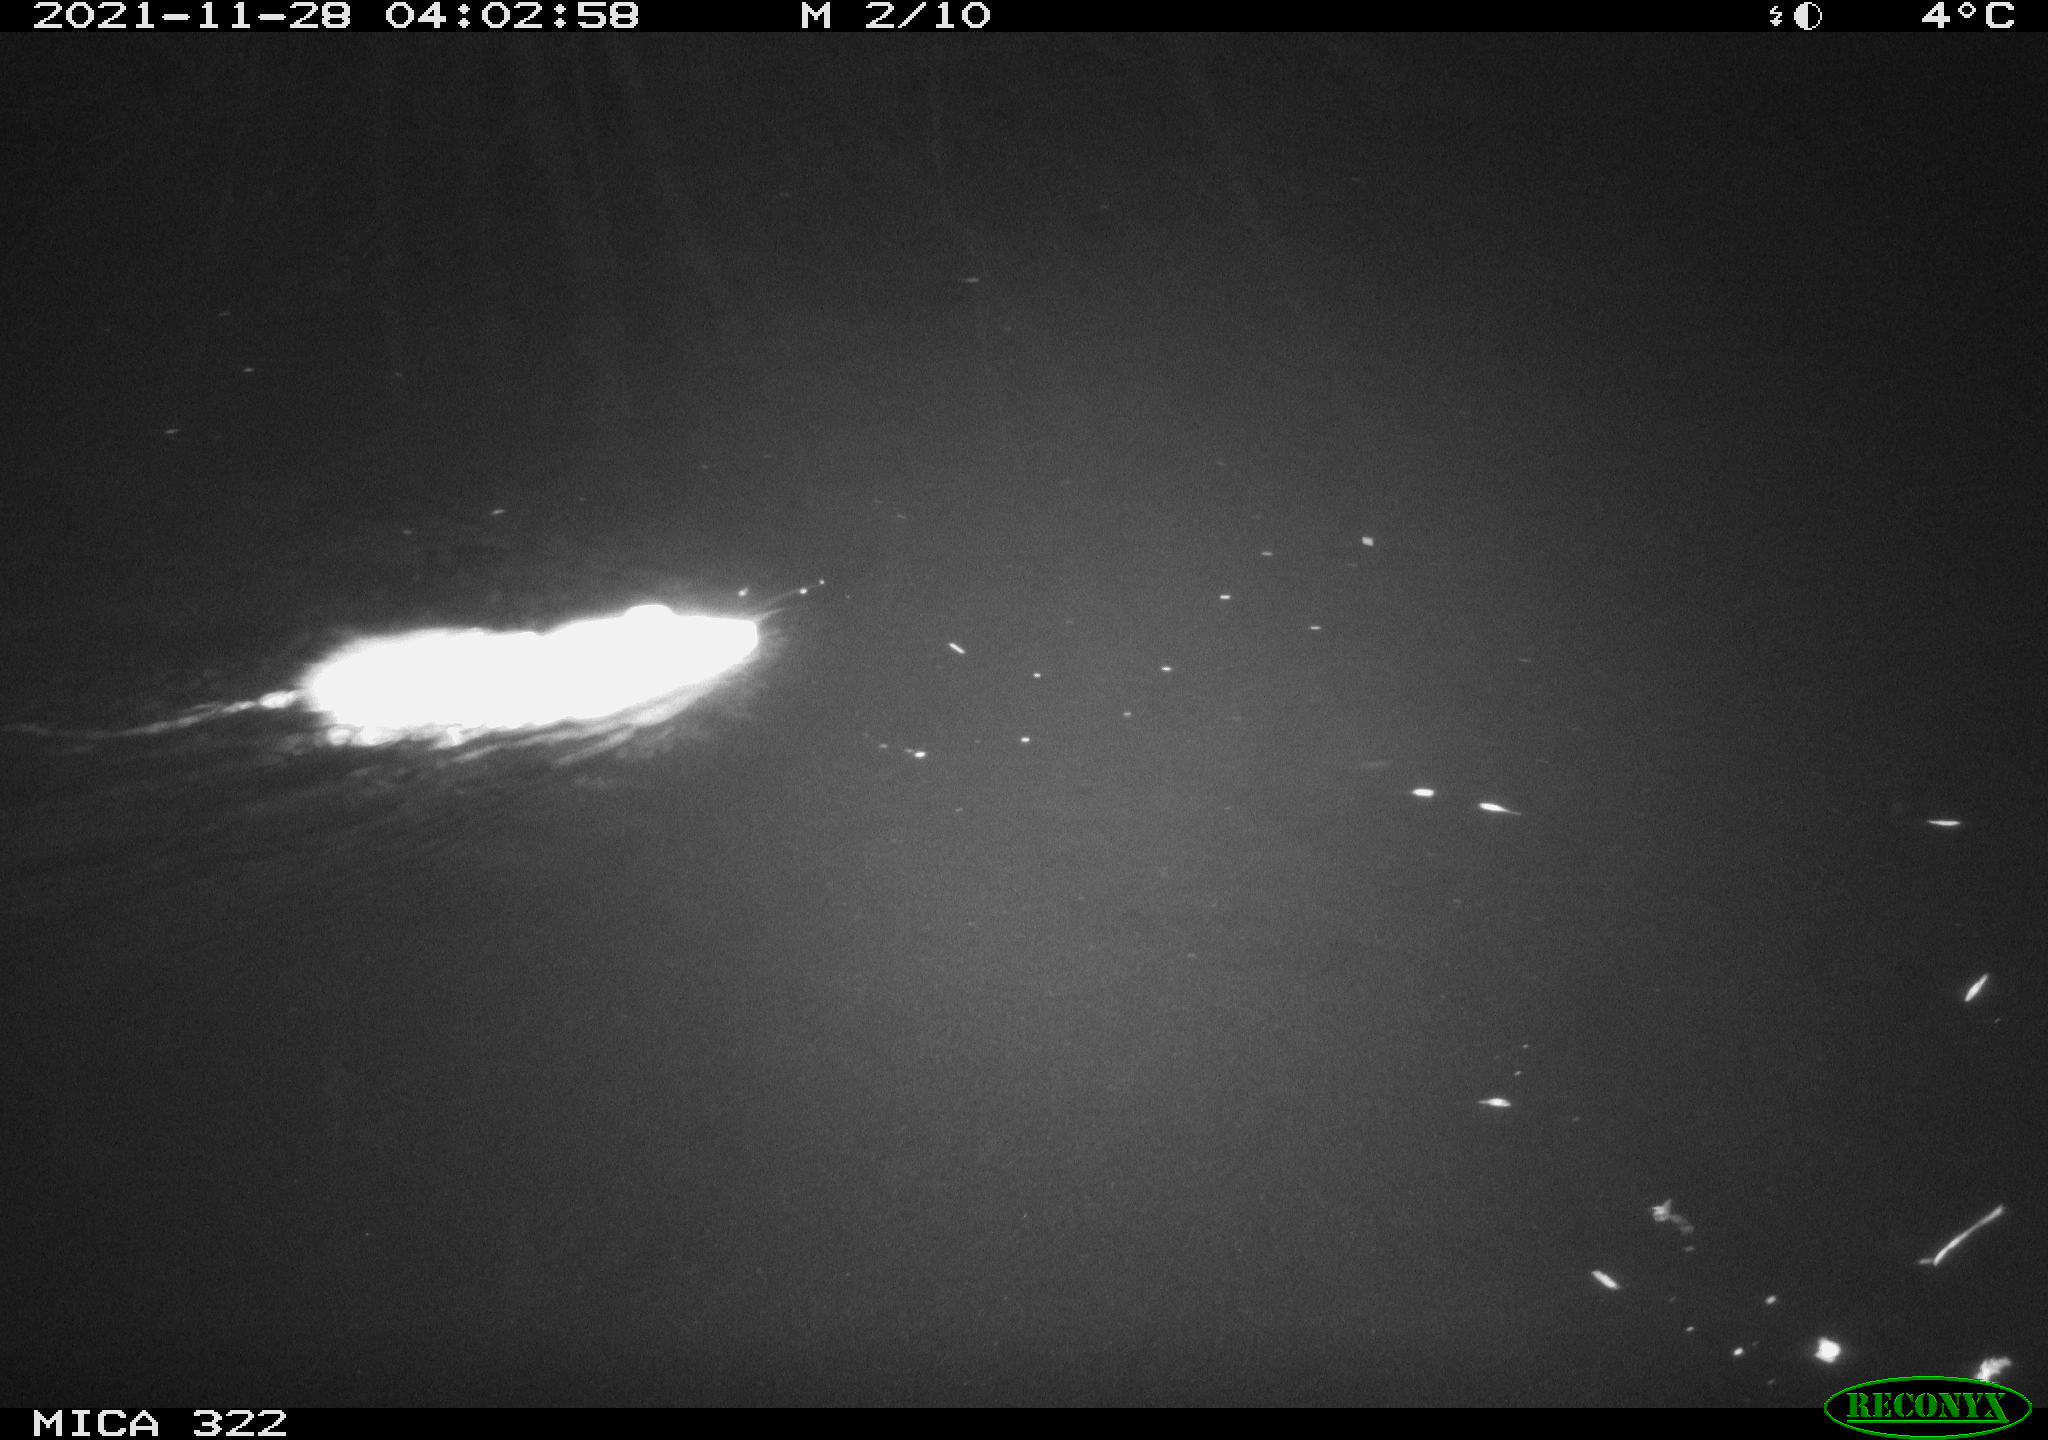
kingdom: Animalia
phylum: Chordata
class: Mammalia
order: Rodentia
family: Muridae
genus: Rattus
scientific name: Rattus norvegicus
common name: Brown rat
